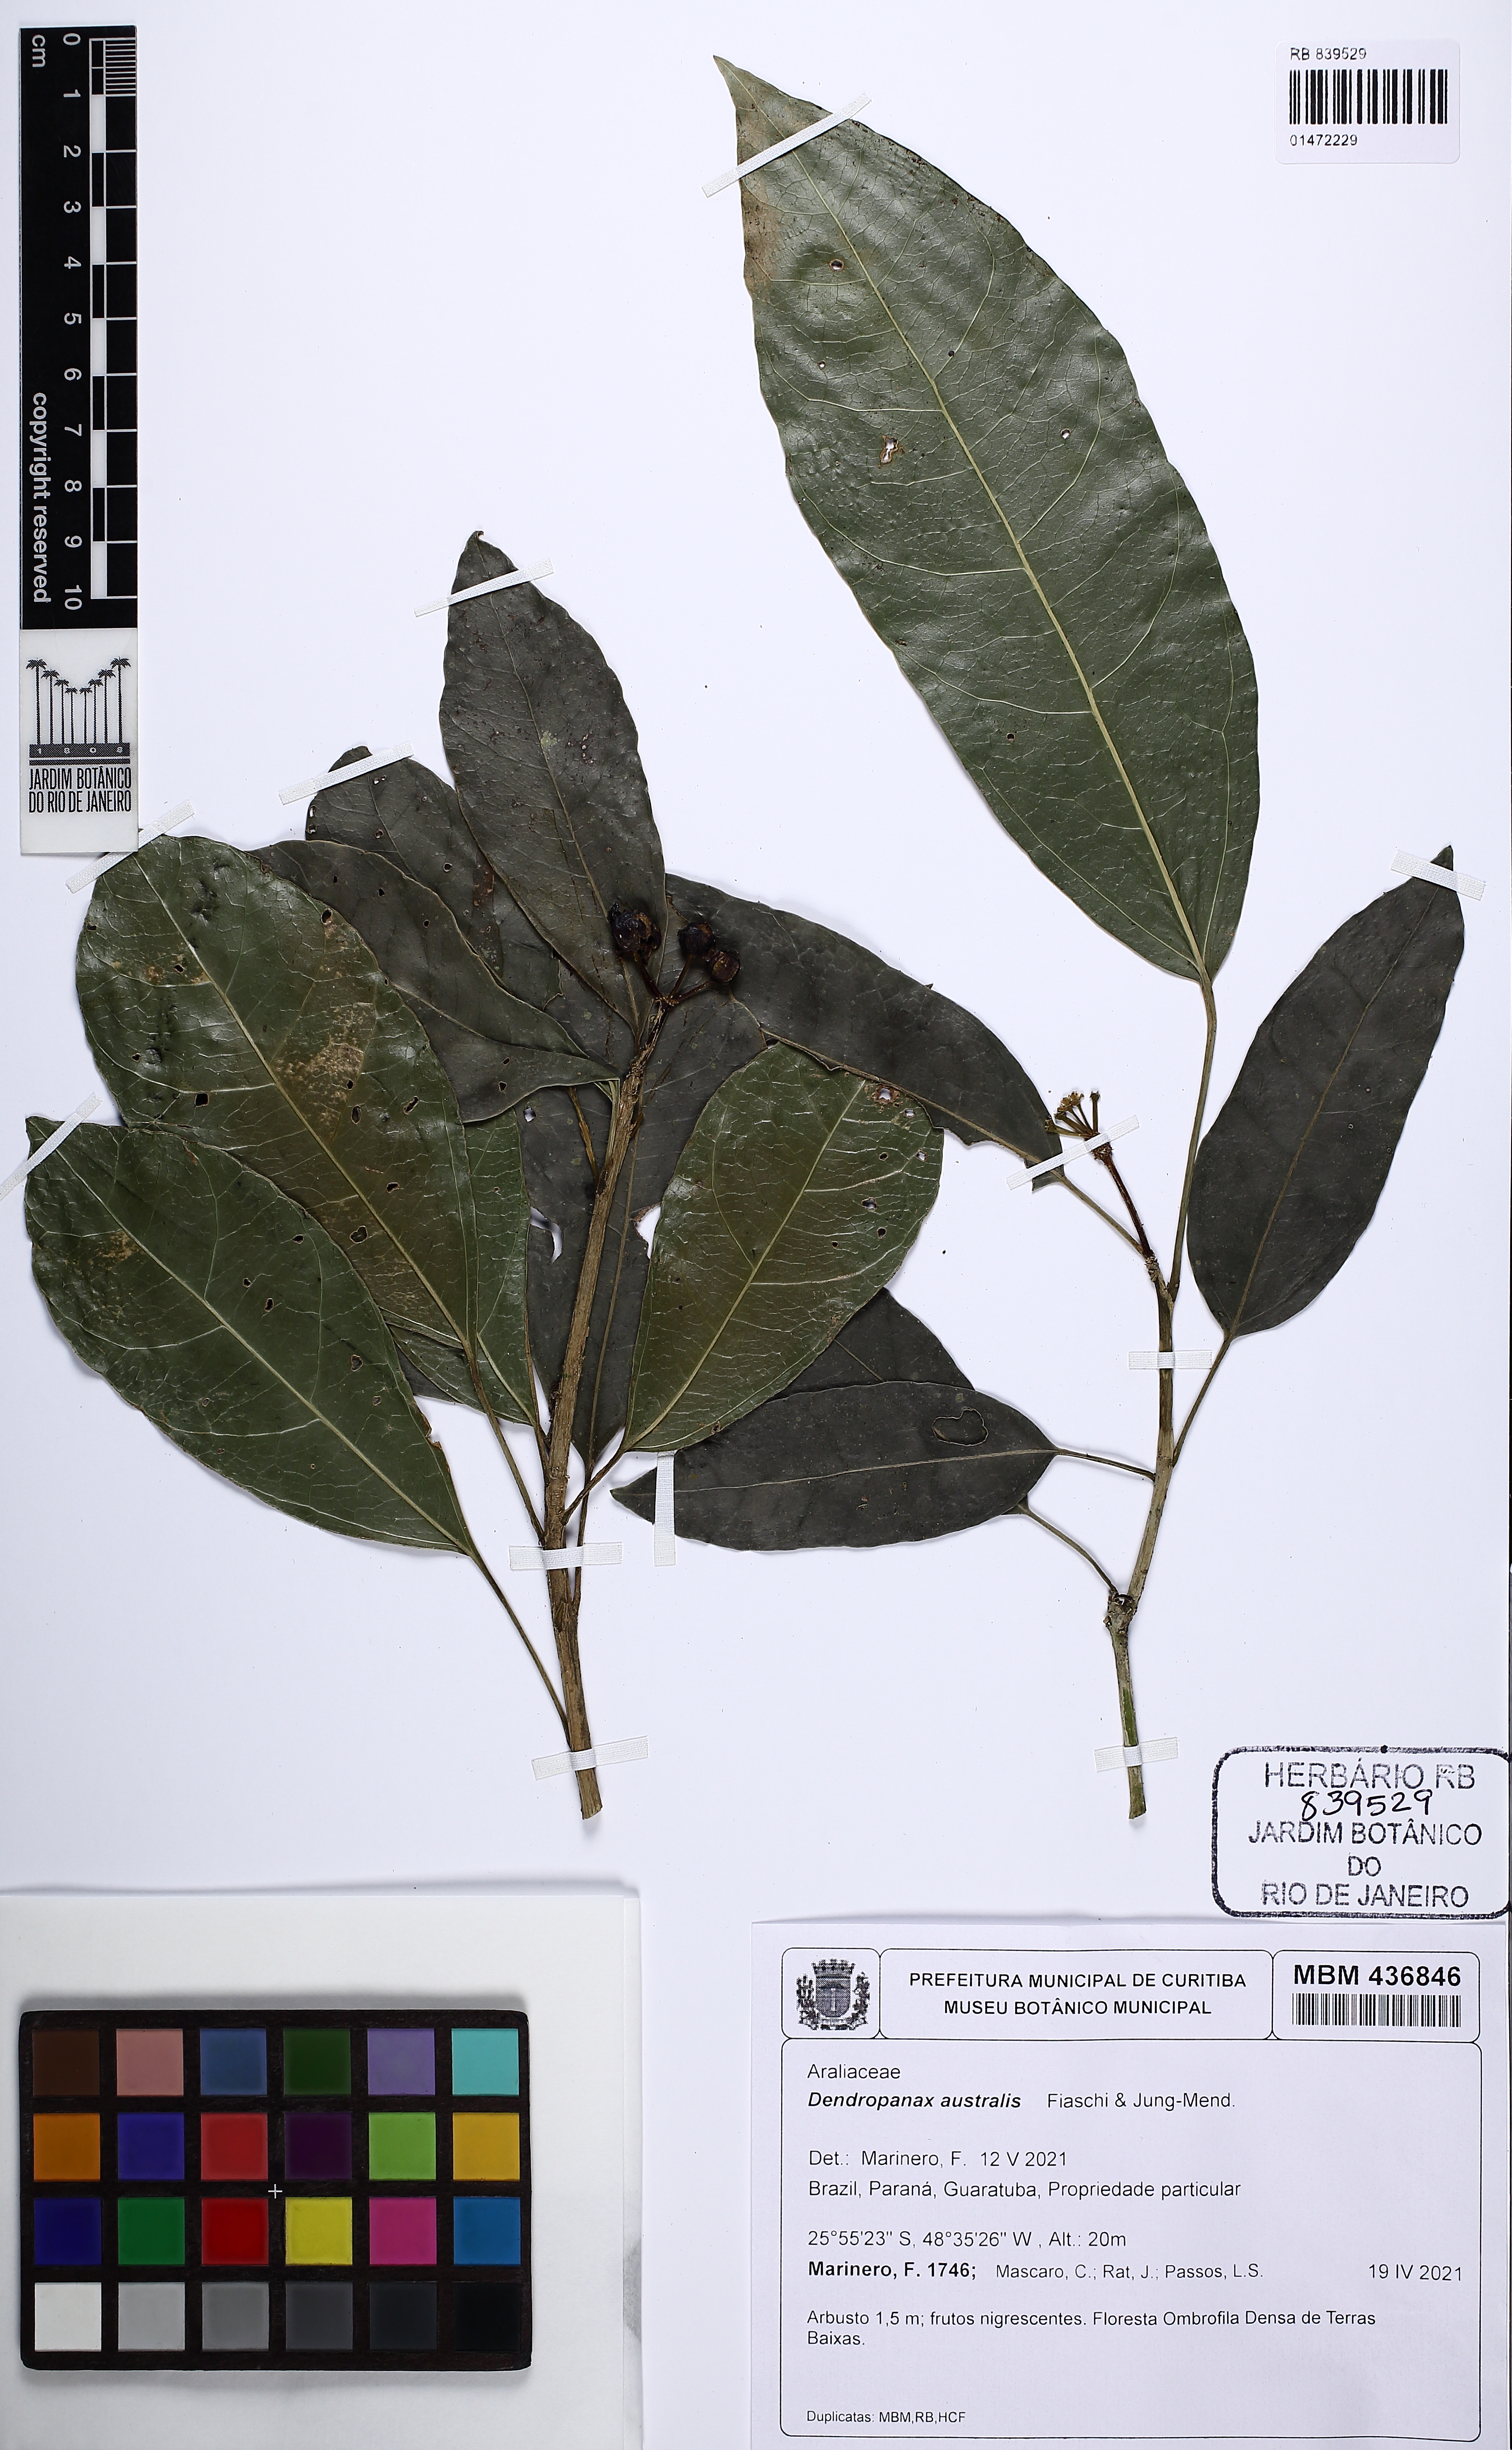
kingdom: Plantae
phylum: Tracheophyta
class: Magnoliopsida
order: Apiales
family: Araliaceae
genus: Dendropanax
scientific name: Dendropanax australis
